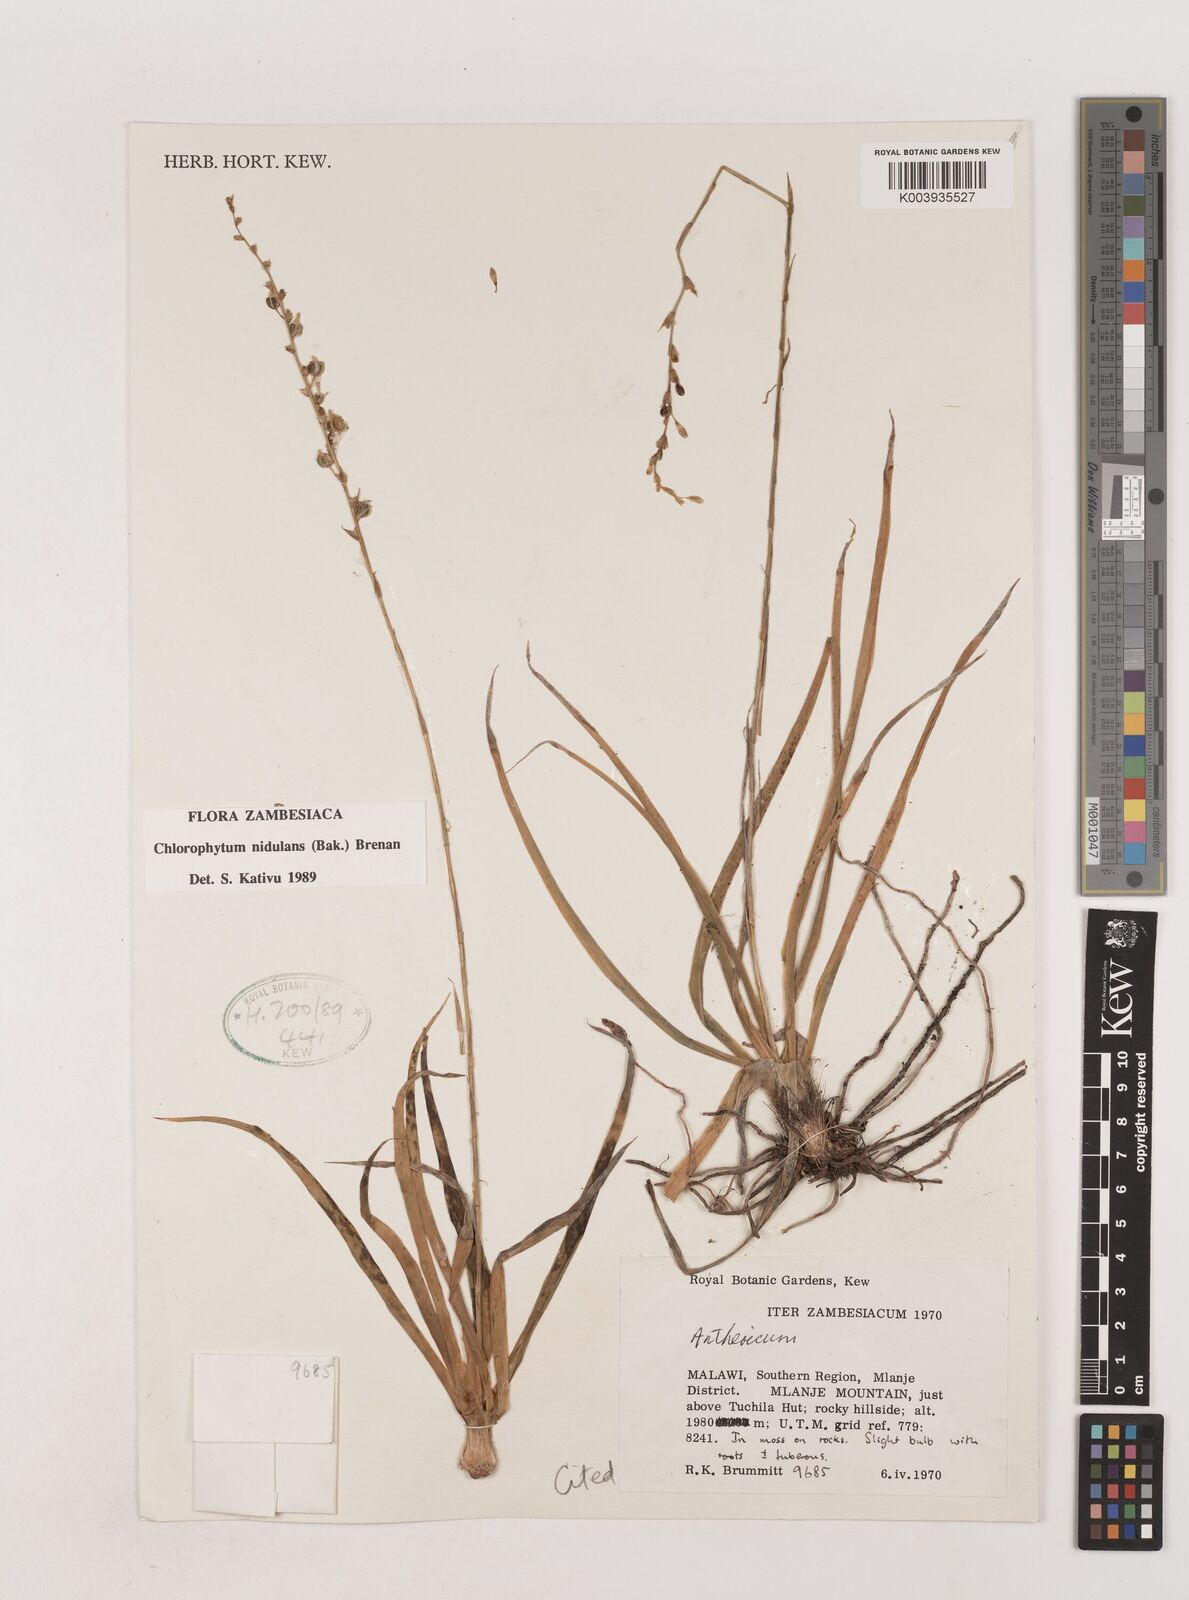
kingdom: Plantae
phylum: Tracheophyta
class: Liliopsida
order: Asparagales
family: Asparagaceae
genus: Chlorophytum
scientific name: Chlorophytum nidulans
